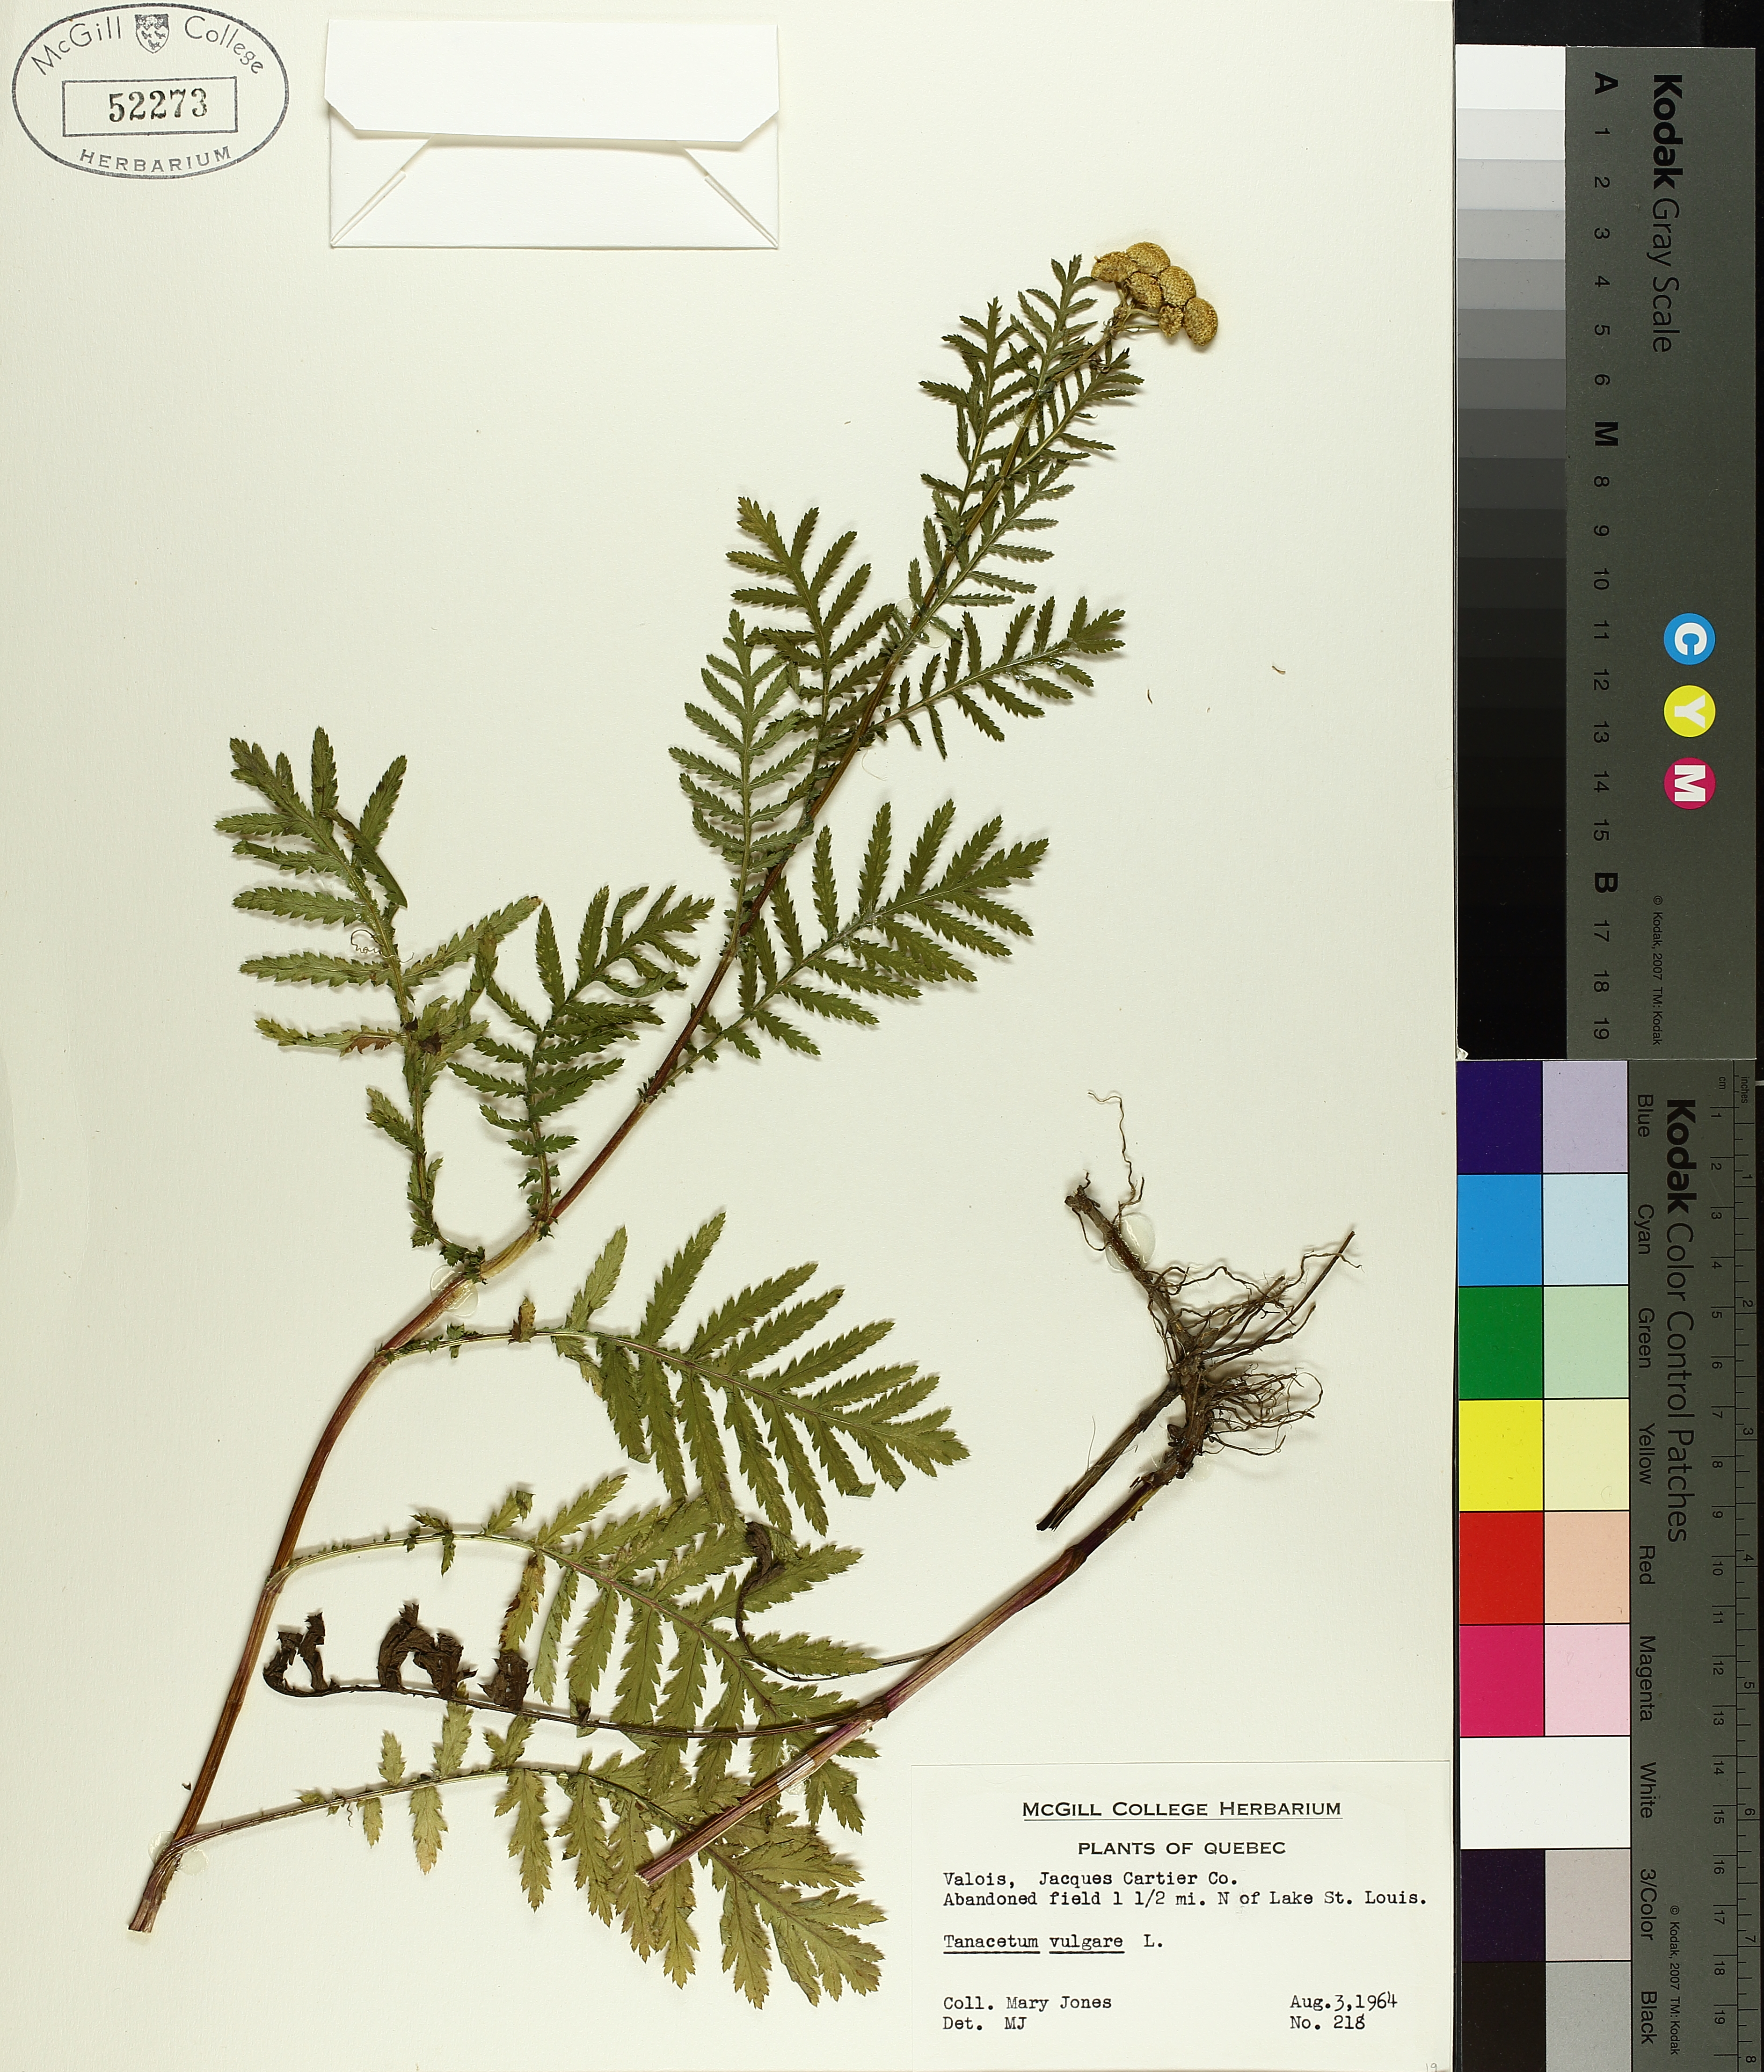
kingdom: Plantae
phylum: Tracheophyta
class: Liliopsida
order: Poales
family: Cyperaceae
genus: Carex
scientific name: Carex communis
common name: Colonial oak sedge
